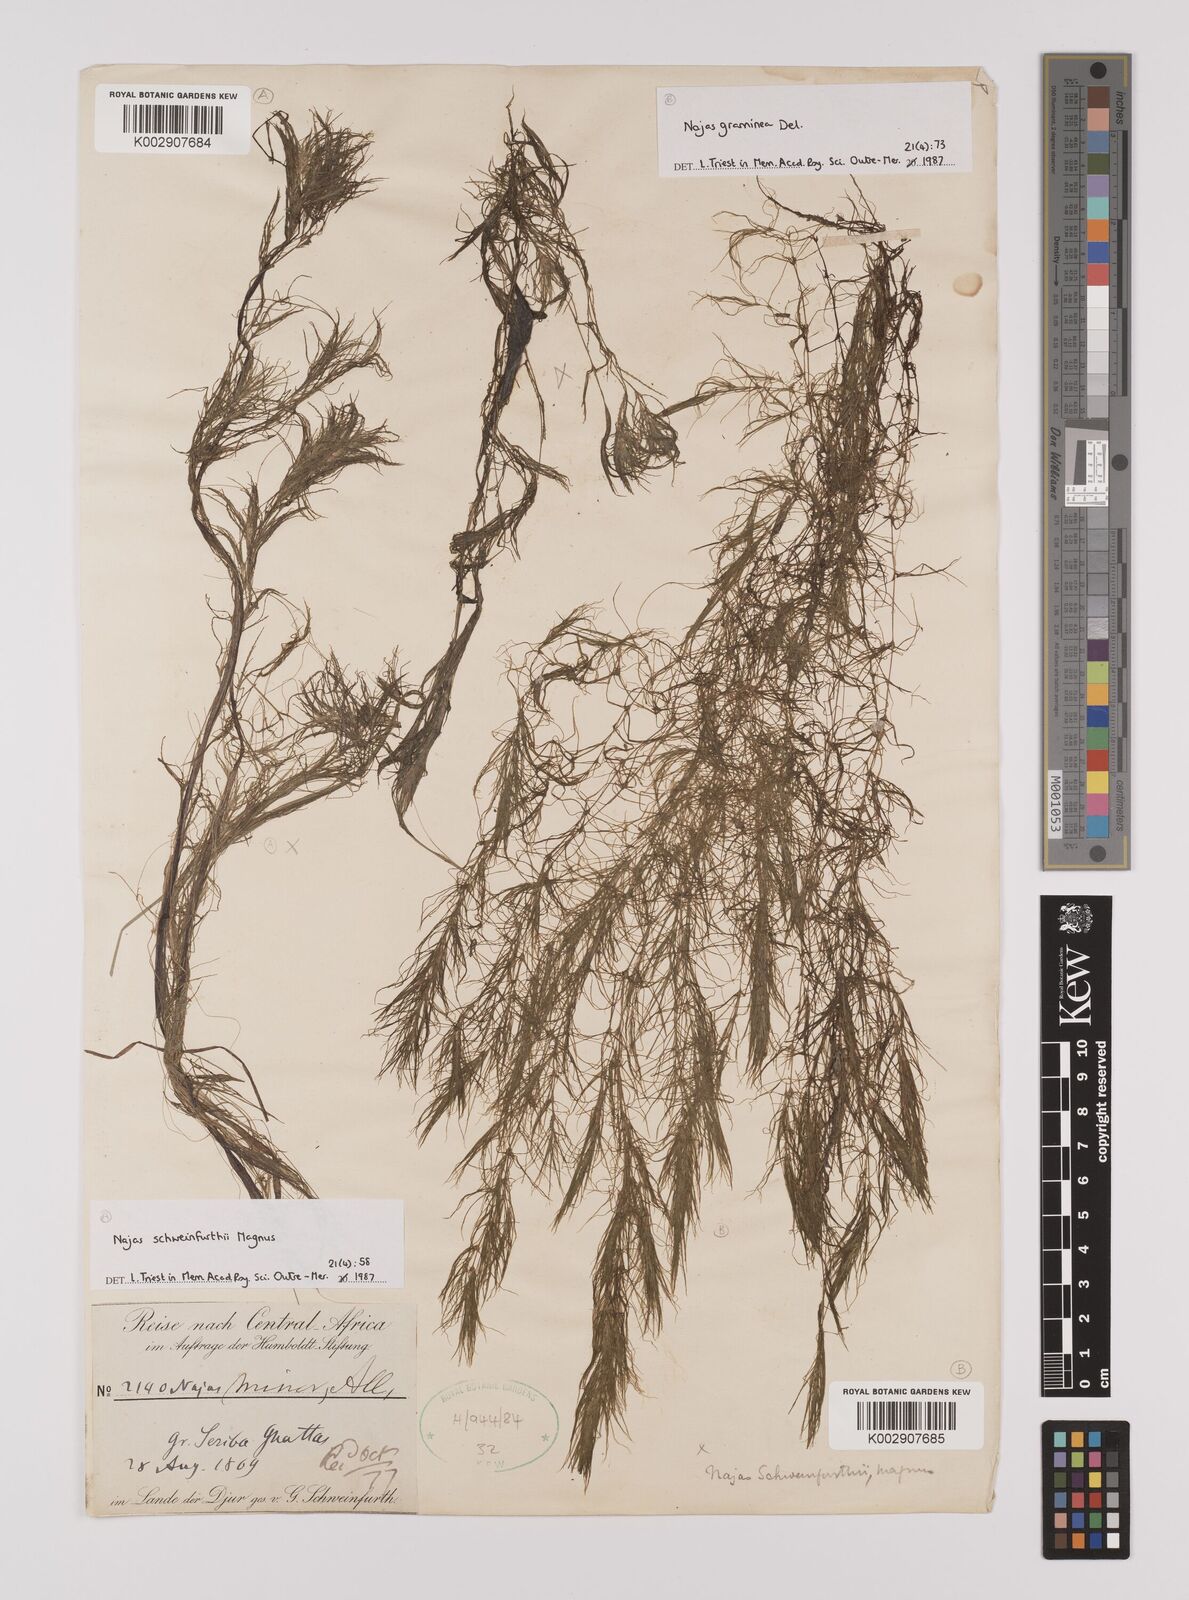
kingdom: Plantae
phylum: Tracheophyta
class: Liliopsida
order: Alismatales
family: Hydrocharitaceae
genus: Najas
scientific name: Najas schweinfurthii
